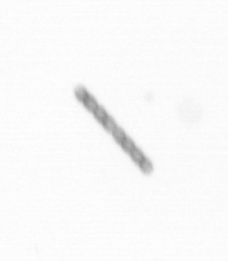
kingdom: Chromista
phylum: Ochrophyta
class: Bacillariophyceae
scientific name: Bacillariophyceae
